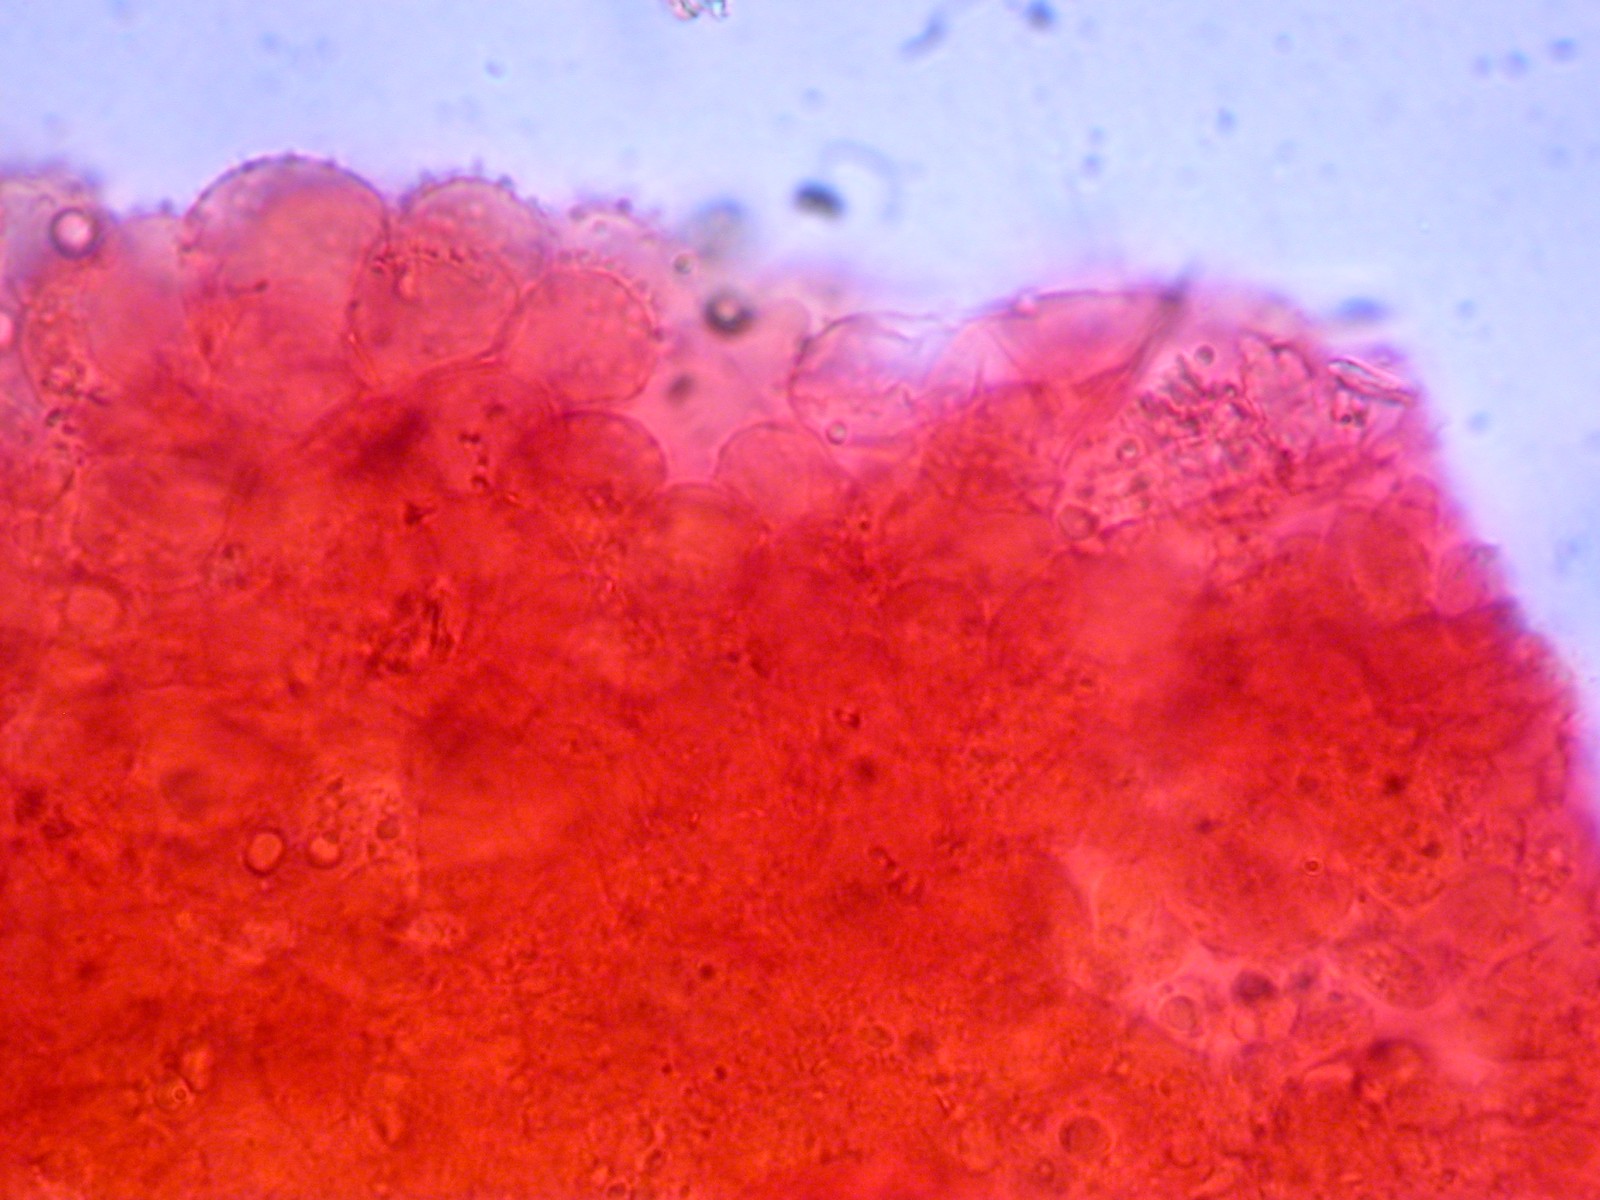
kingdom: Fungi
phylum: Basidiomycota
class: Agaricomycetes
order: Agaricales
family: Mycenaceae
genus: Mycena
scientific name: Mycena
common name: huesvamp
